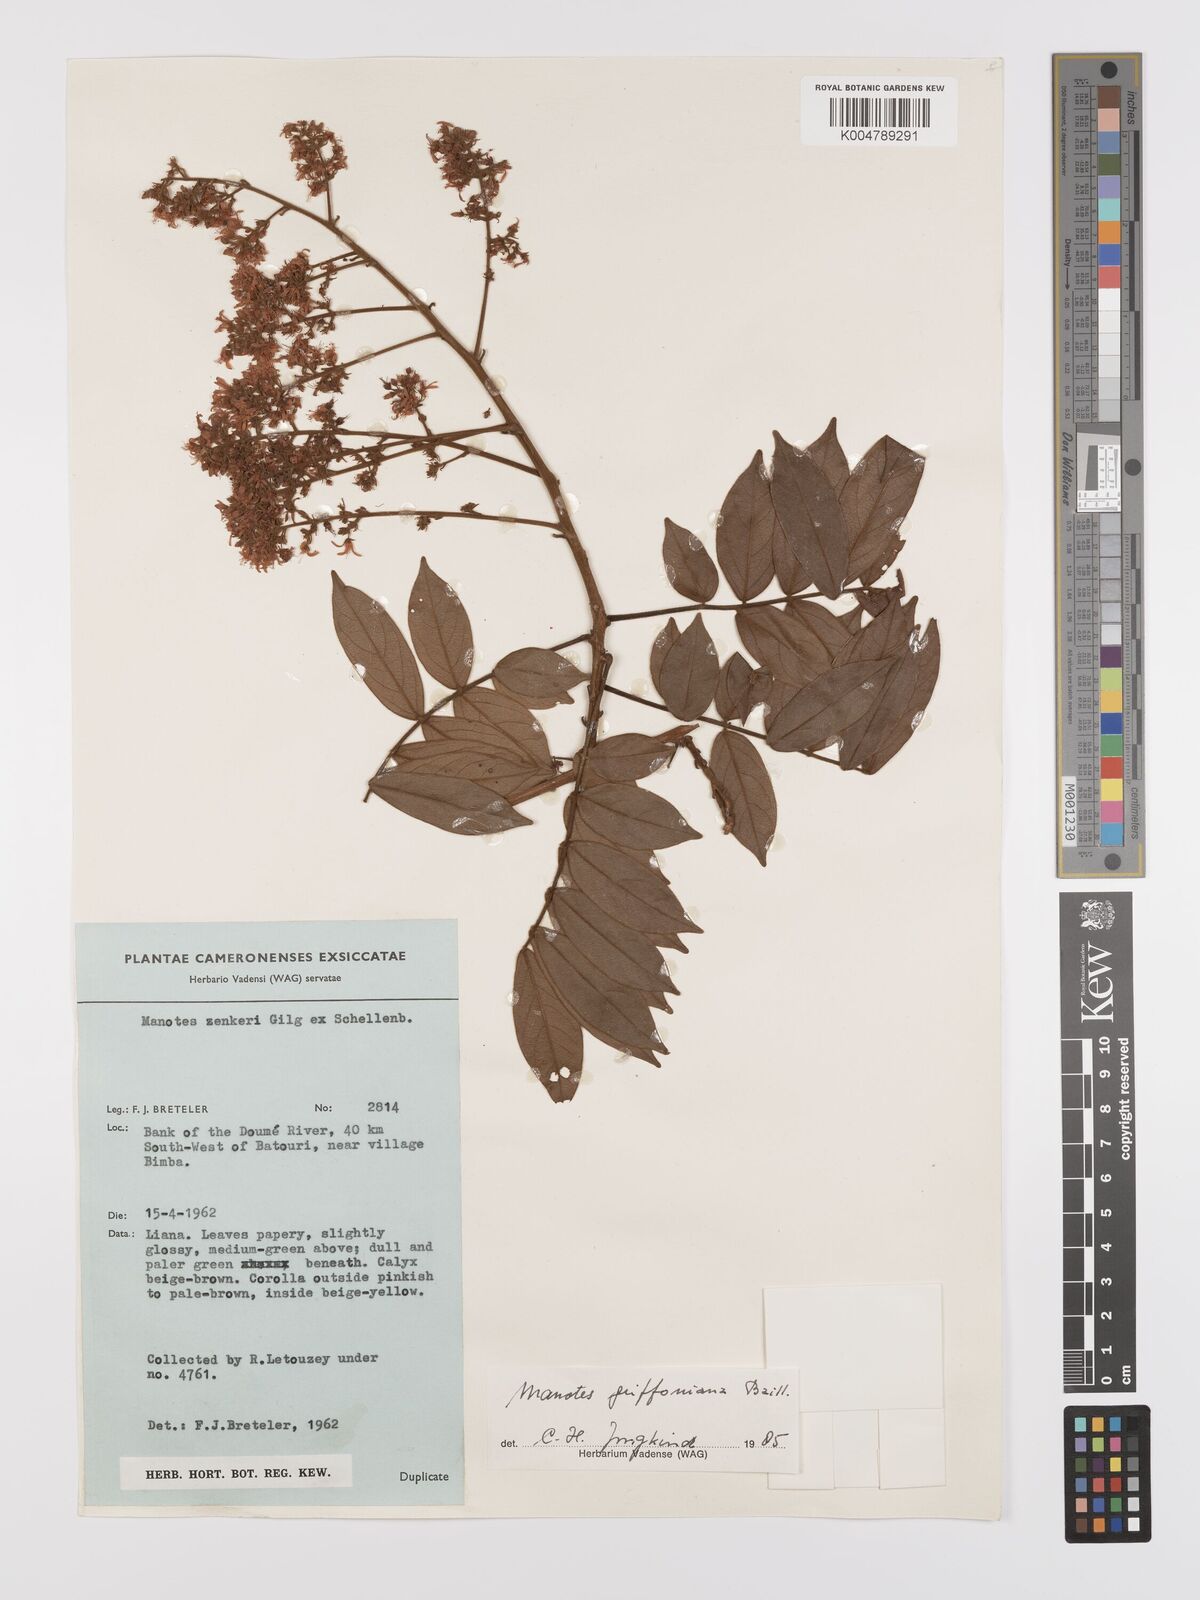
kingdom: Plantae
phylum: Tracheophyta
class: Magnoliopsida
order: Oxalidales
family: Connaraceae
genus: Manotes
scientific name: Manotes griffoniana
